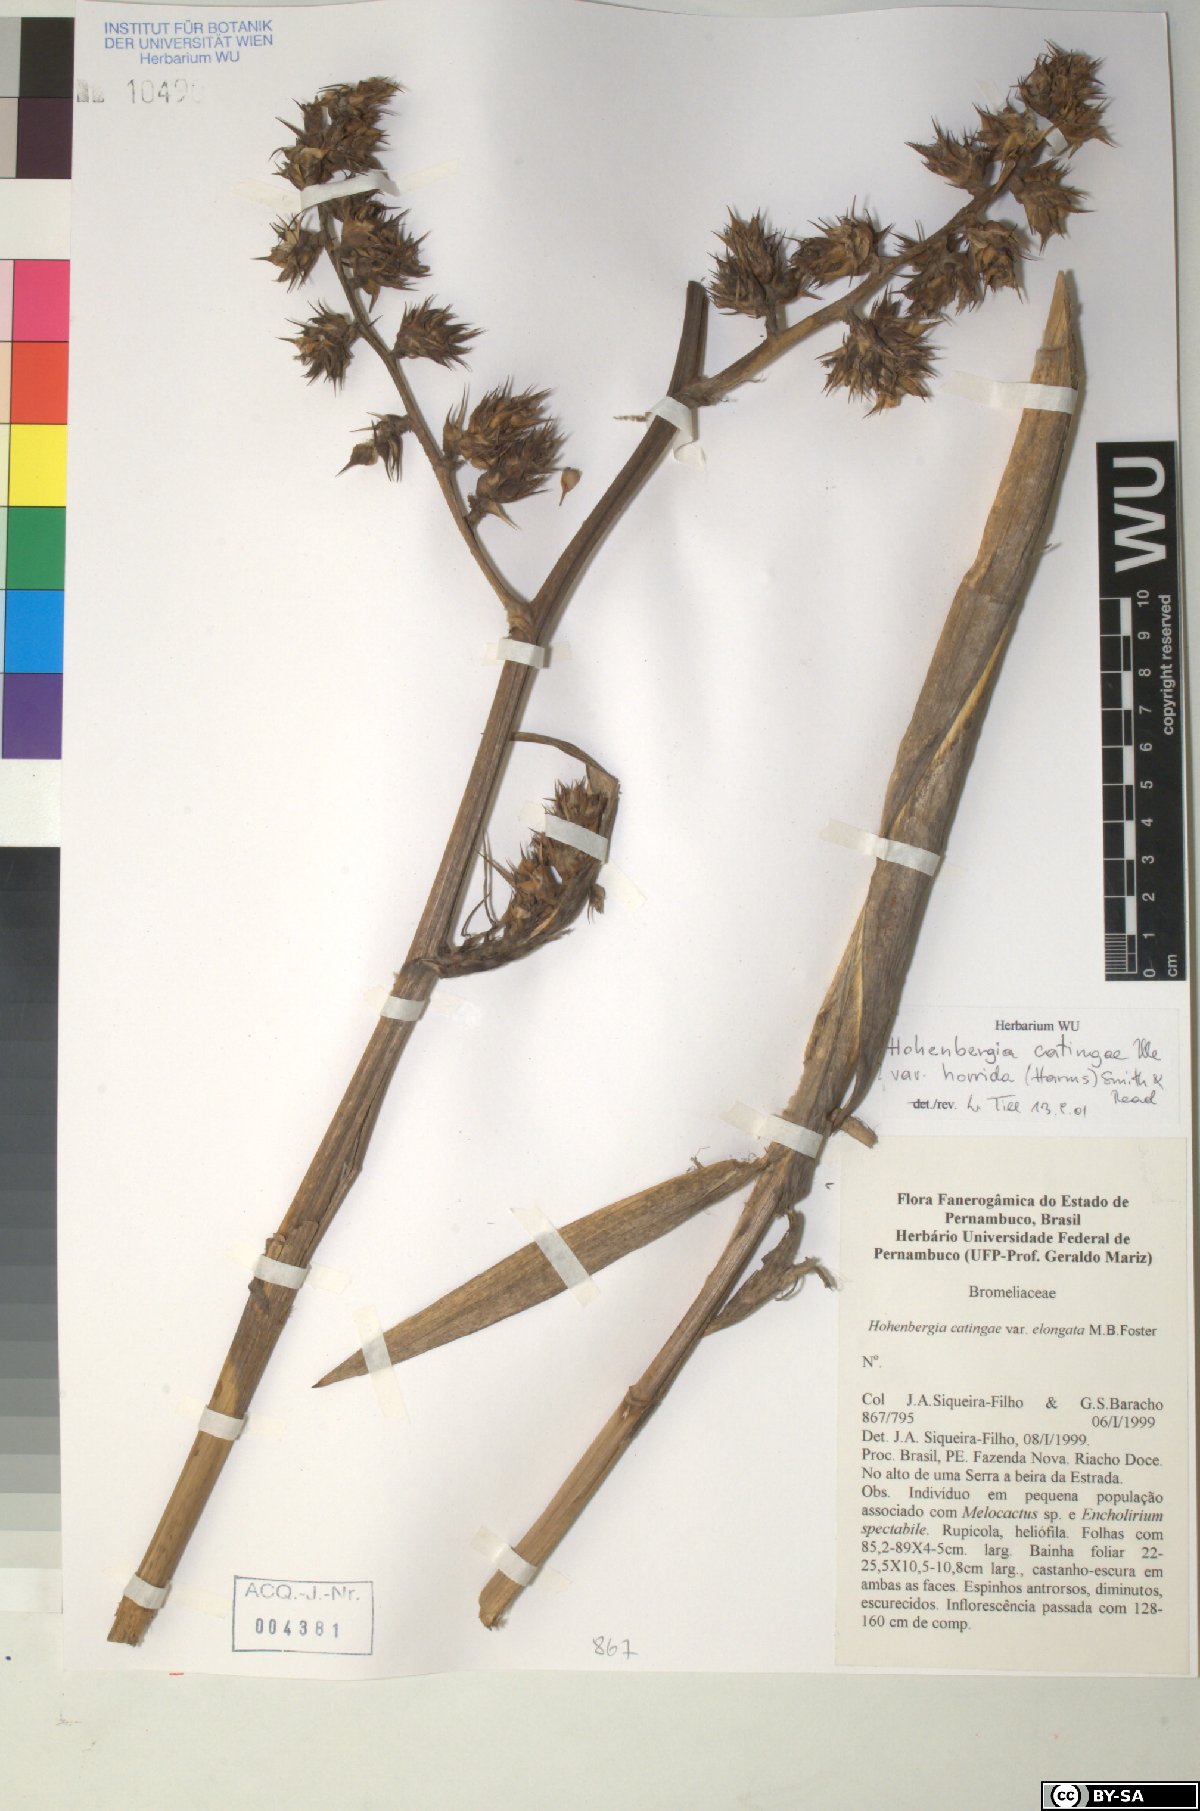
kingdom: Plantae
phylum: Tracheophyta
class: Liliopsida
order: Poales
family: Bromeliaceae
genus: Hohenbergia
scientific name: Hohenbergia catingae
